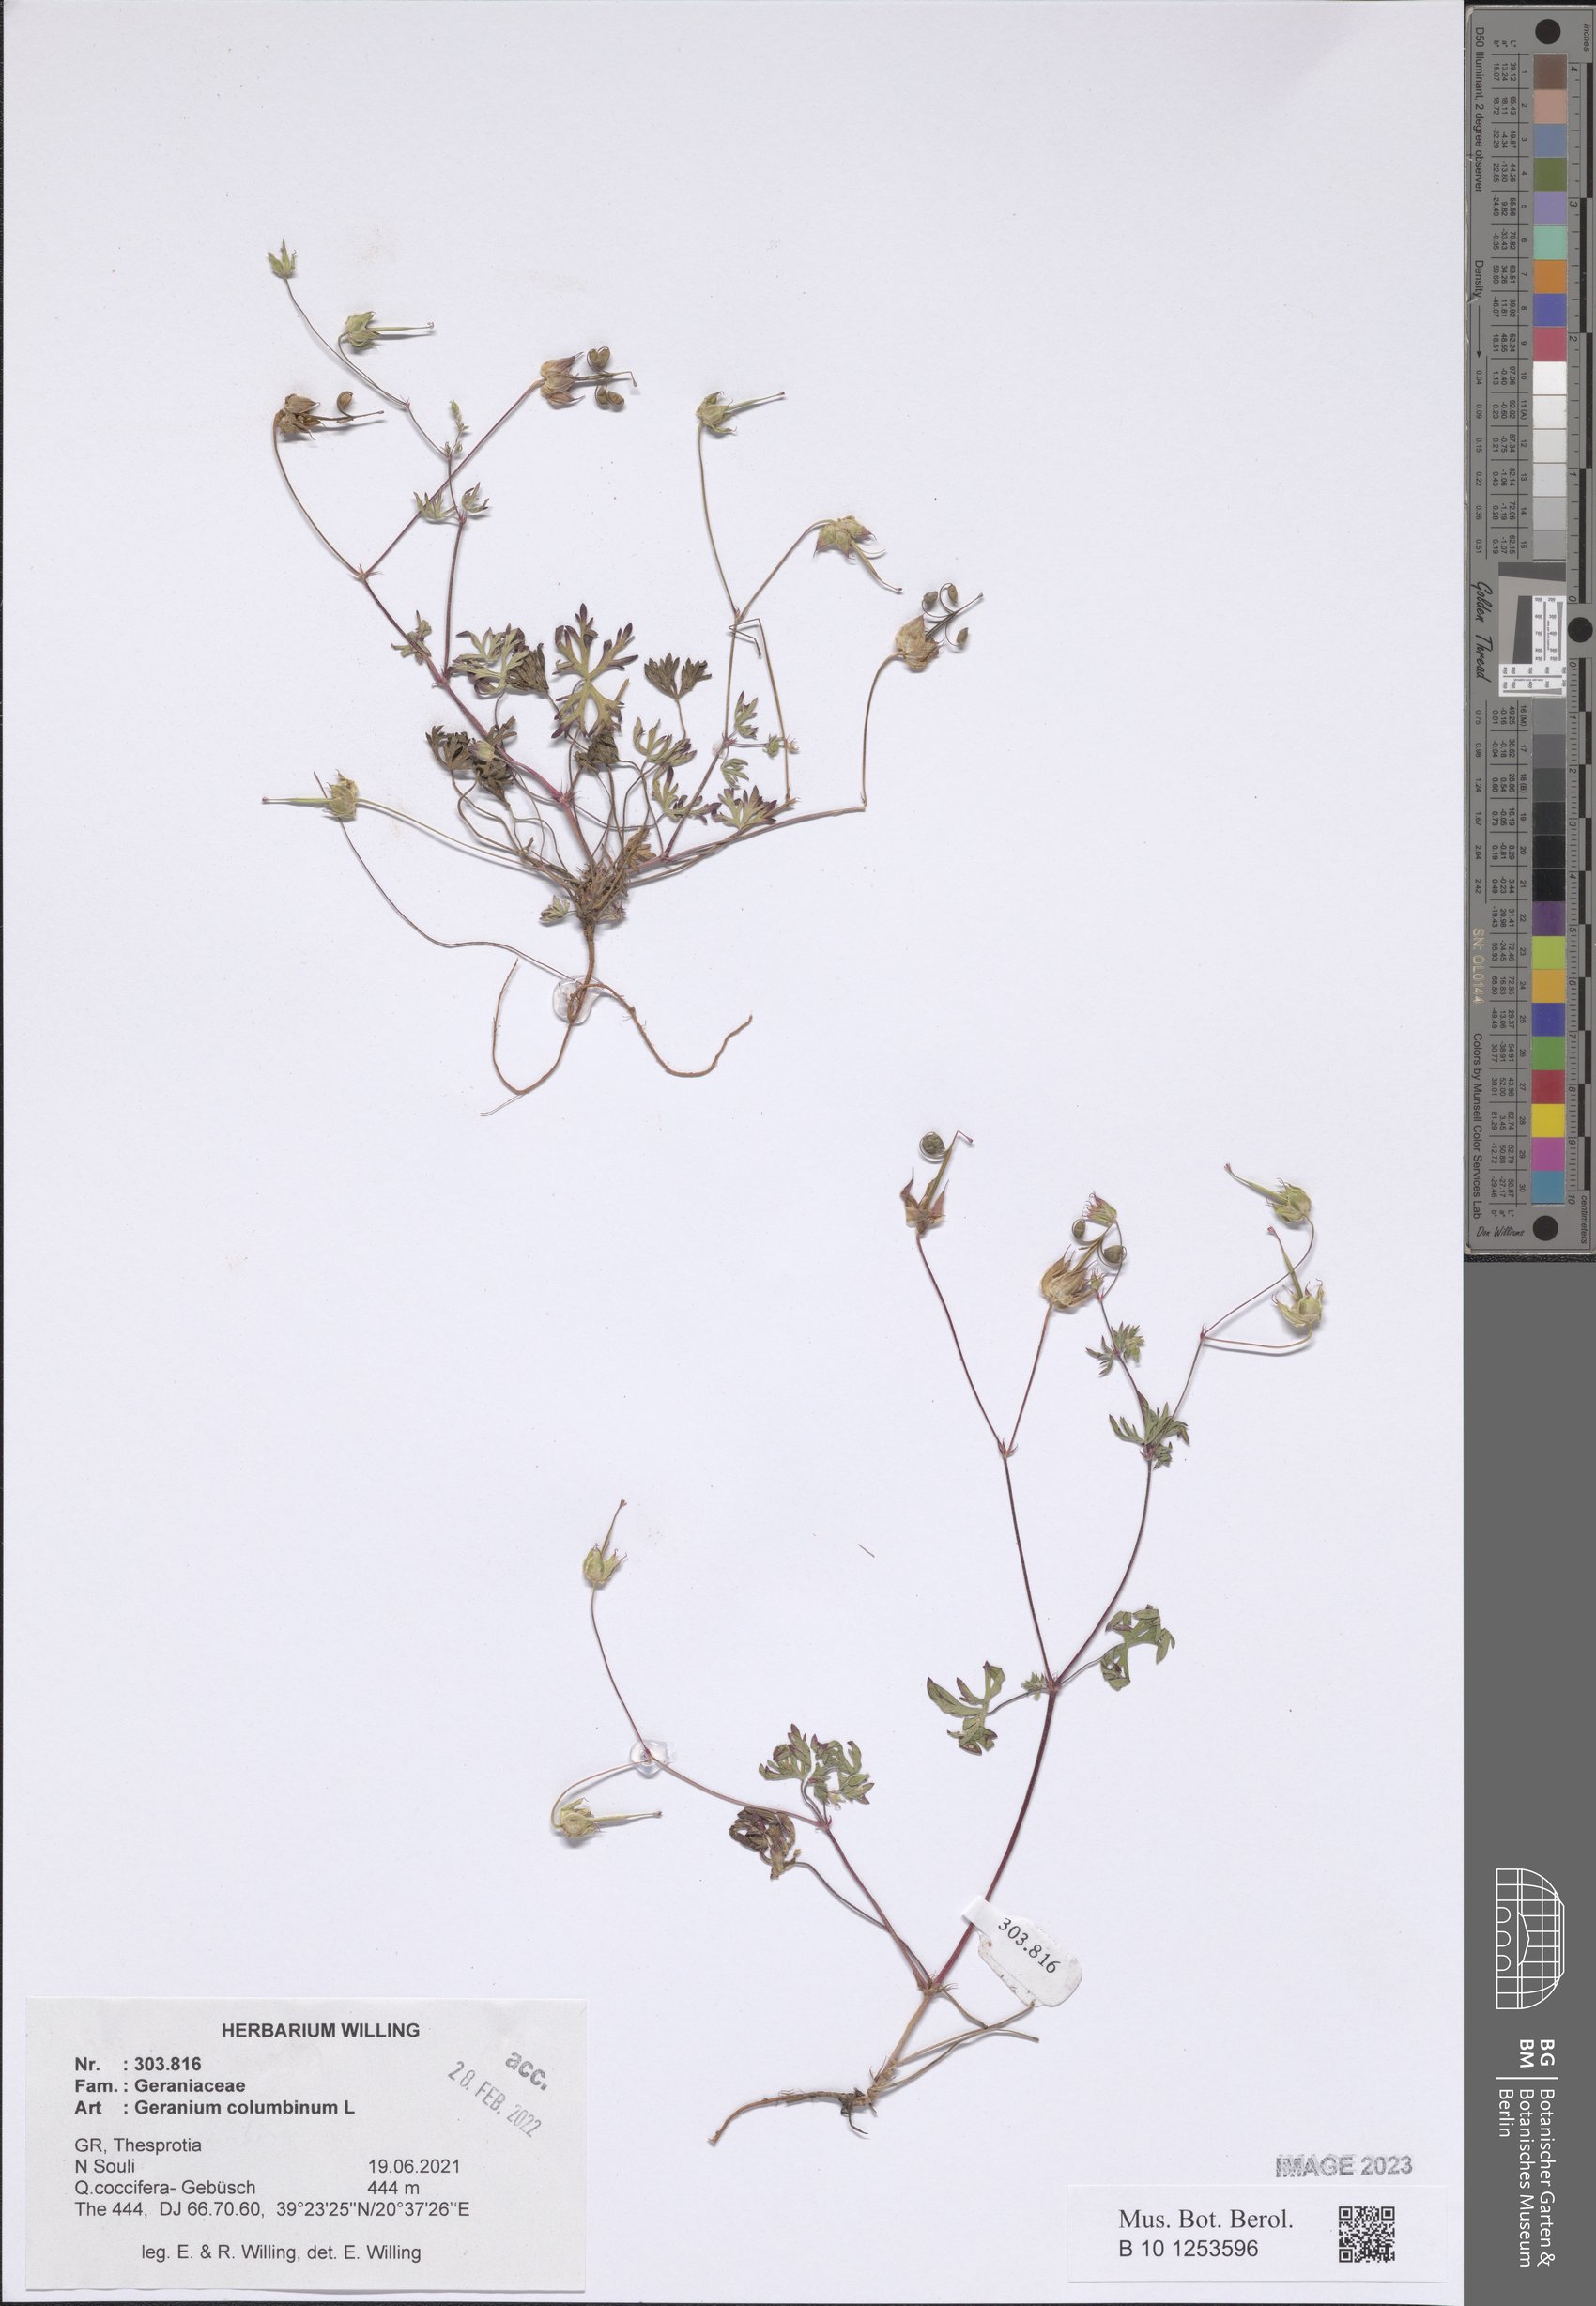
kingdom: Plantae
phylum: Tracheophyta
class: Magnoliopsida
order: Geraniales
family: Geraniaceae
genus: Geranium
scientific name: Geranium columbinum
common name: Long-stalked crane's-bill
